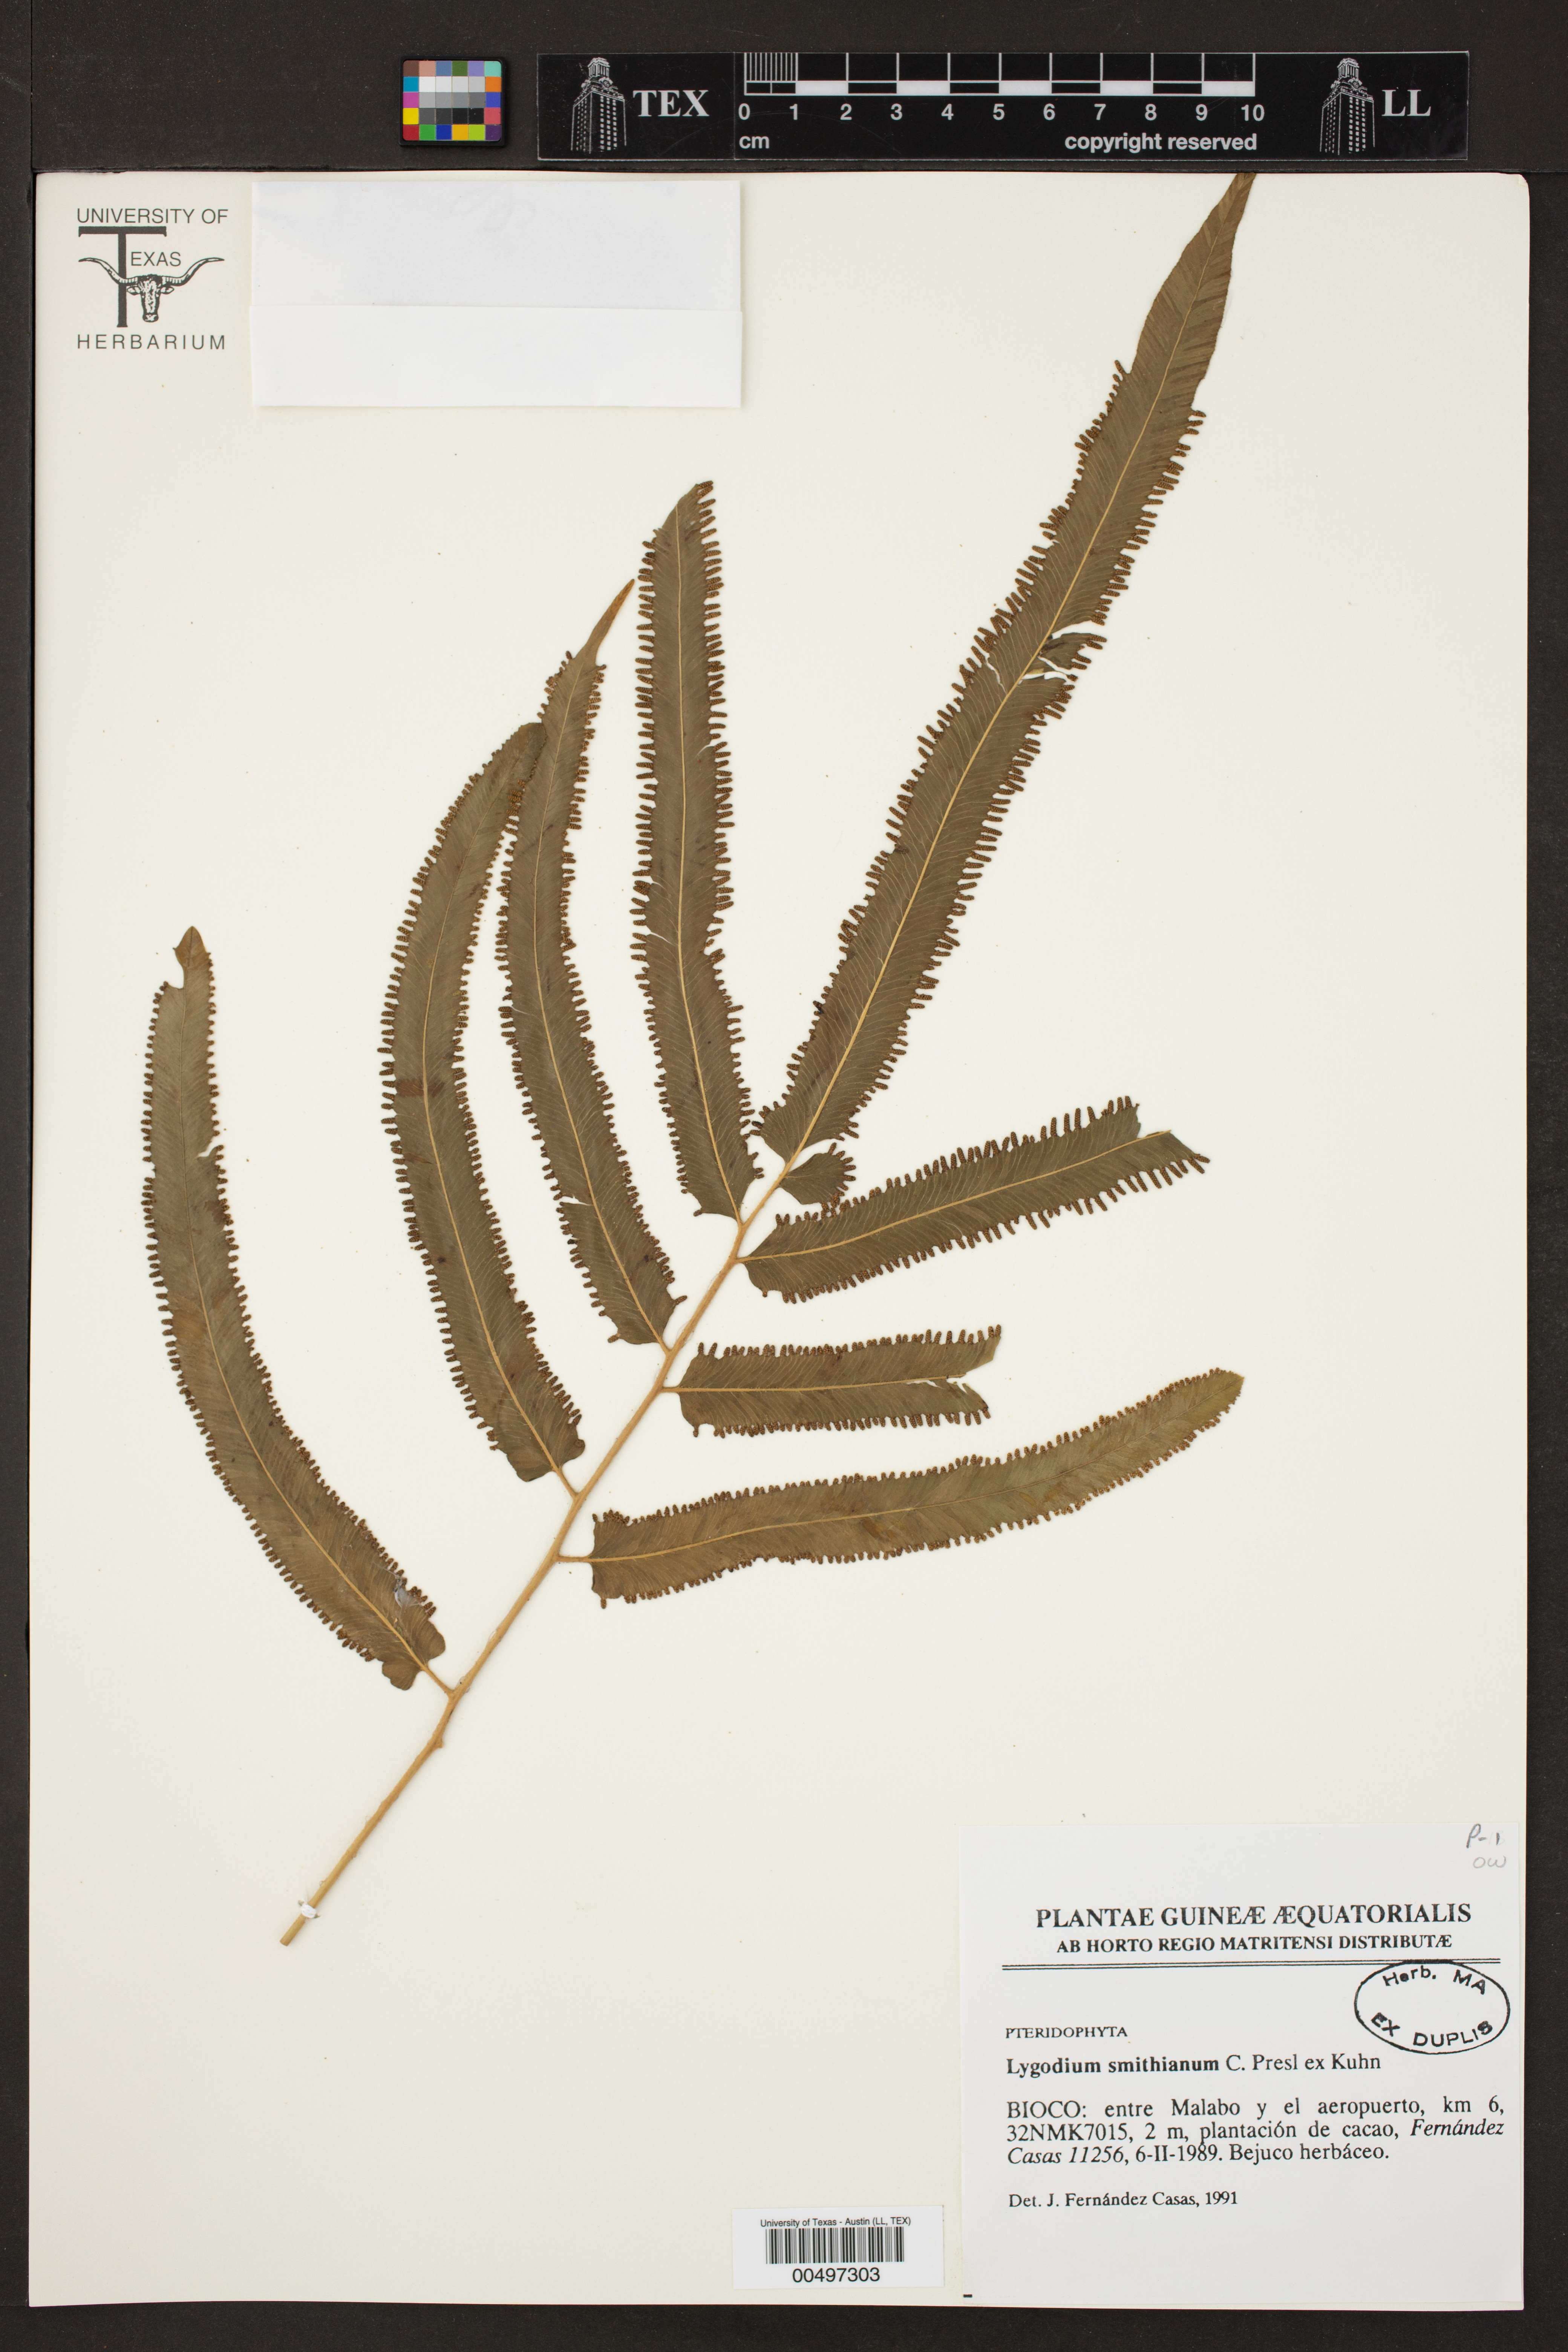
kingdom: Plantae
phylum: Tracheophyta
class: Polypodiopsida
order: Schizaeales
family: Lygodiaceae
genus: Lygodium
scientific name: Lygodium smithianum
